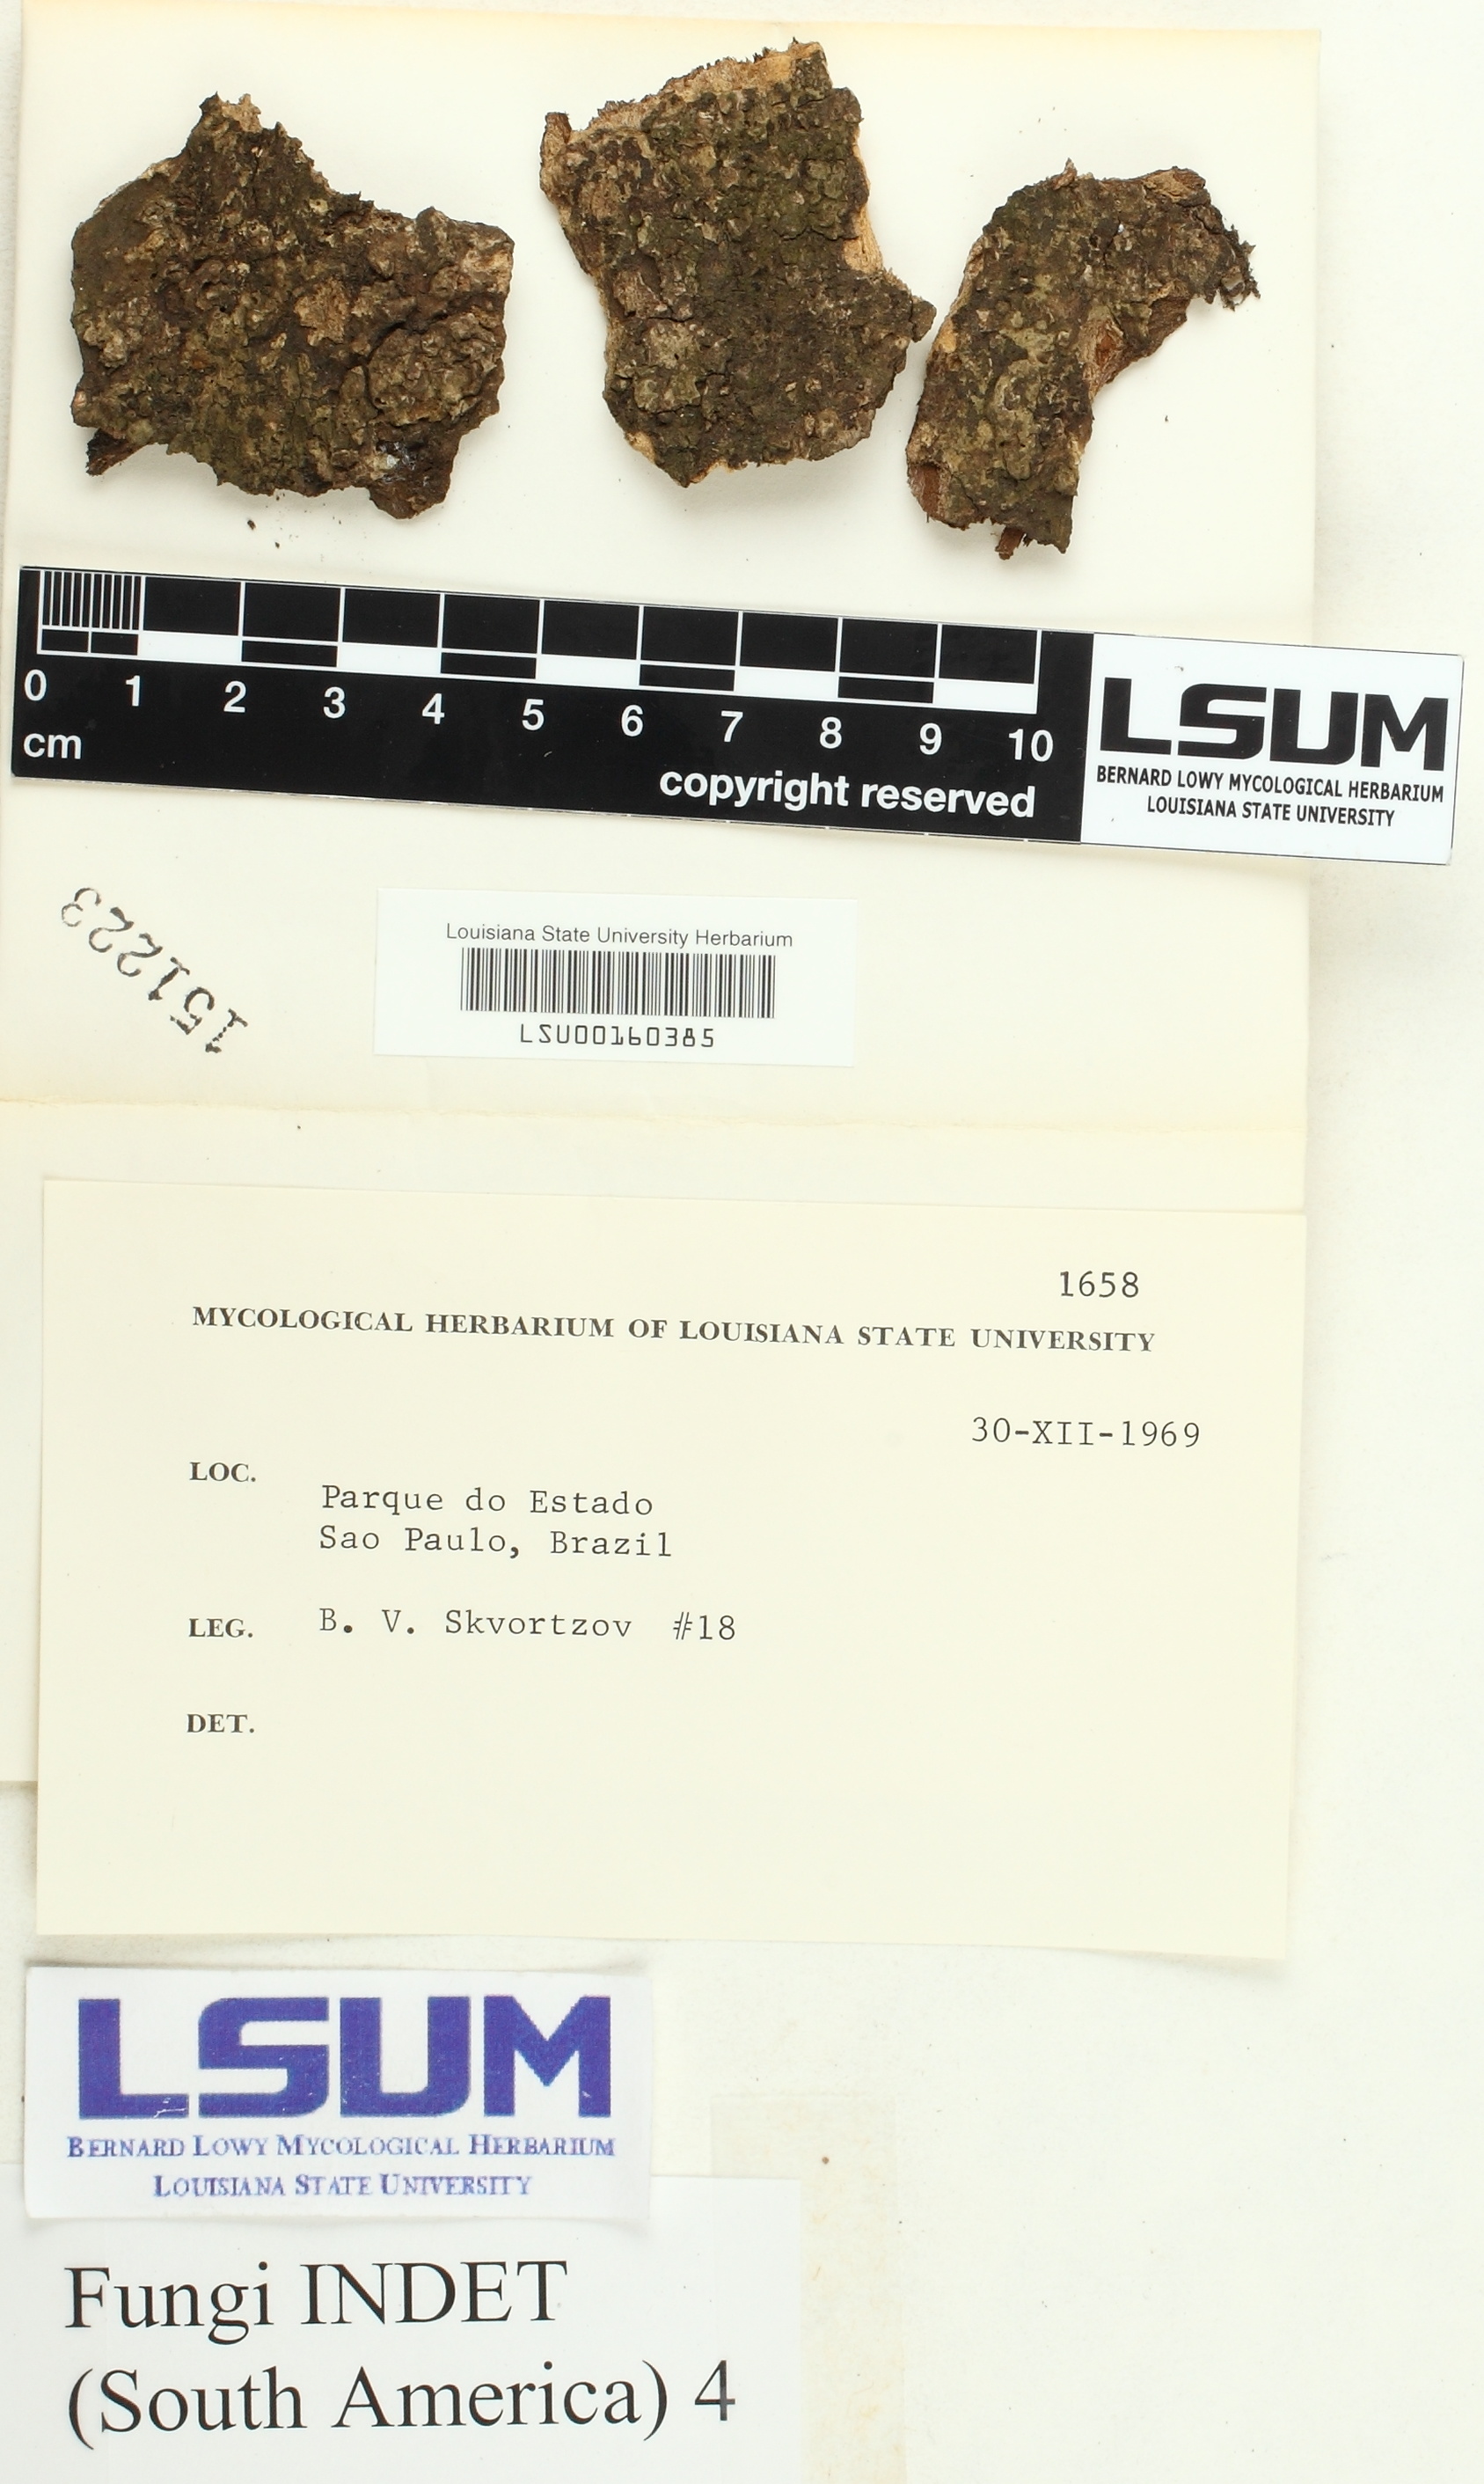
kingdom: Fungi
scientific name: Fungi
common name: Fungi
